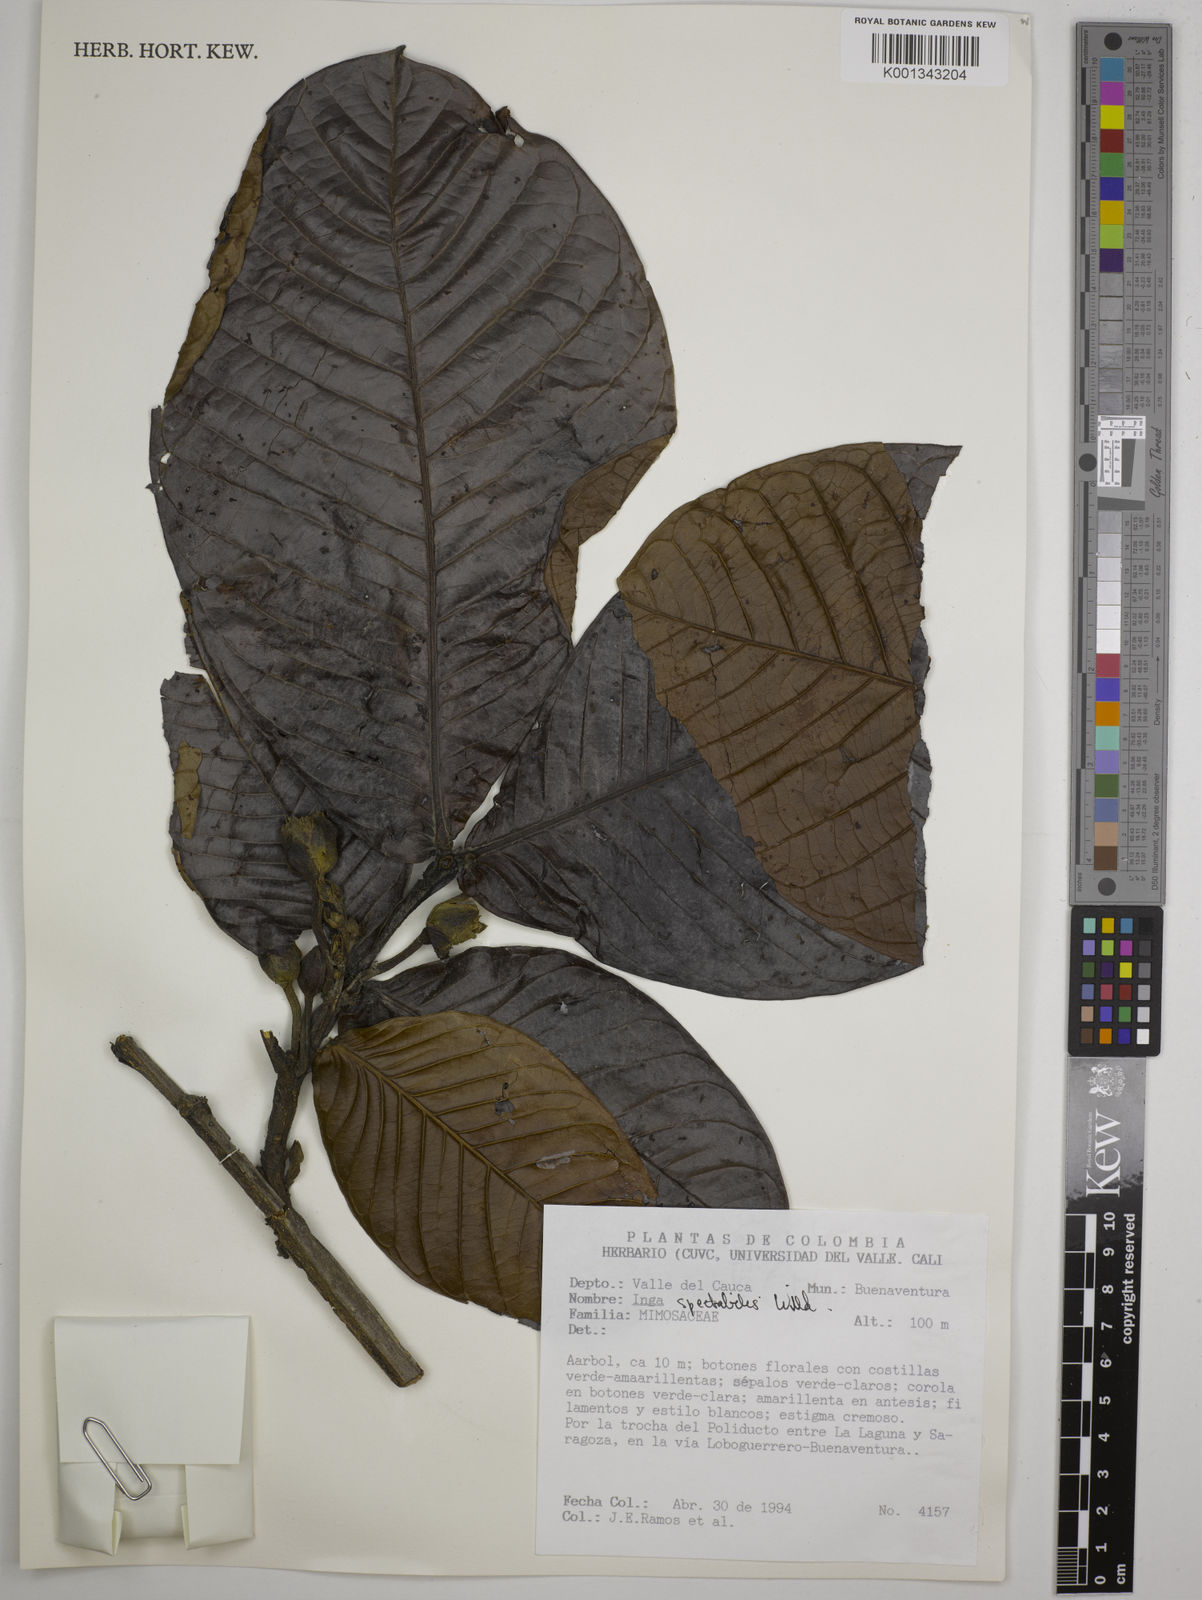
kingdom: Plantae
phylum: Tracheophyta
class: Magnoliopsida
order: Fabales
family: Fabaceae
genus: Inga
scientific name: Inga spectabilis
